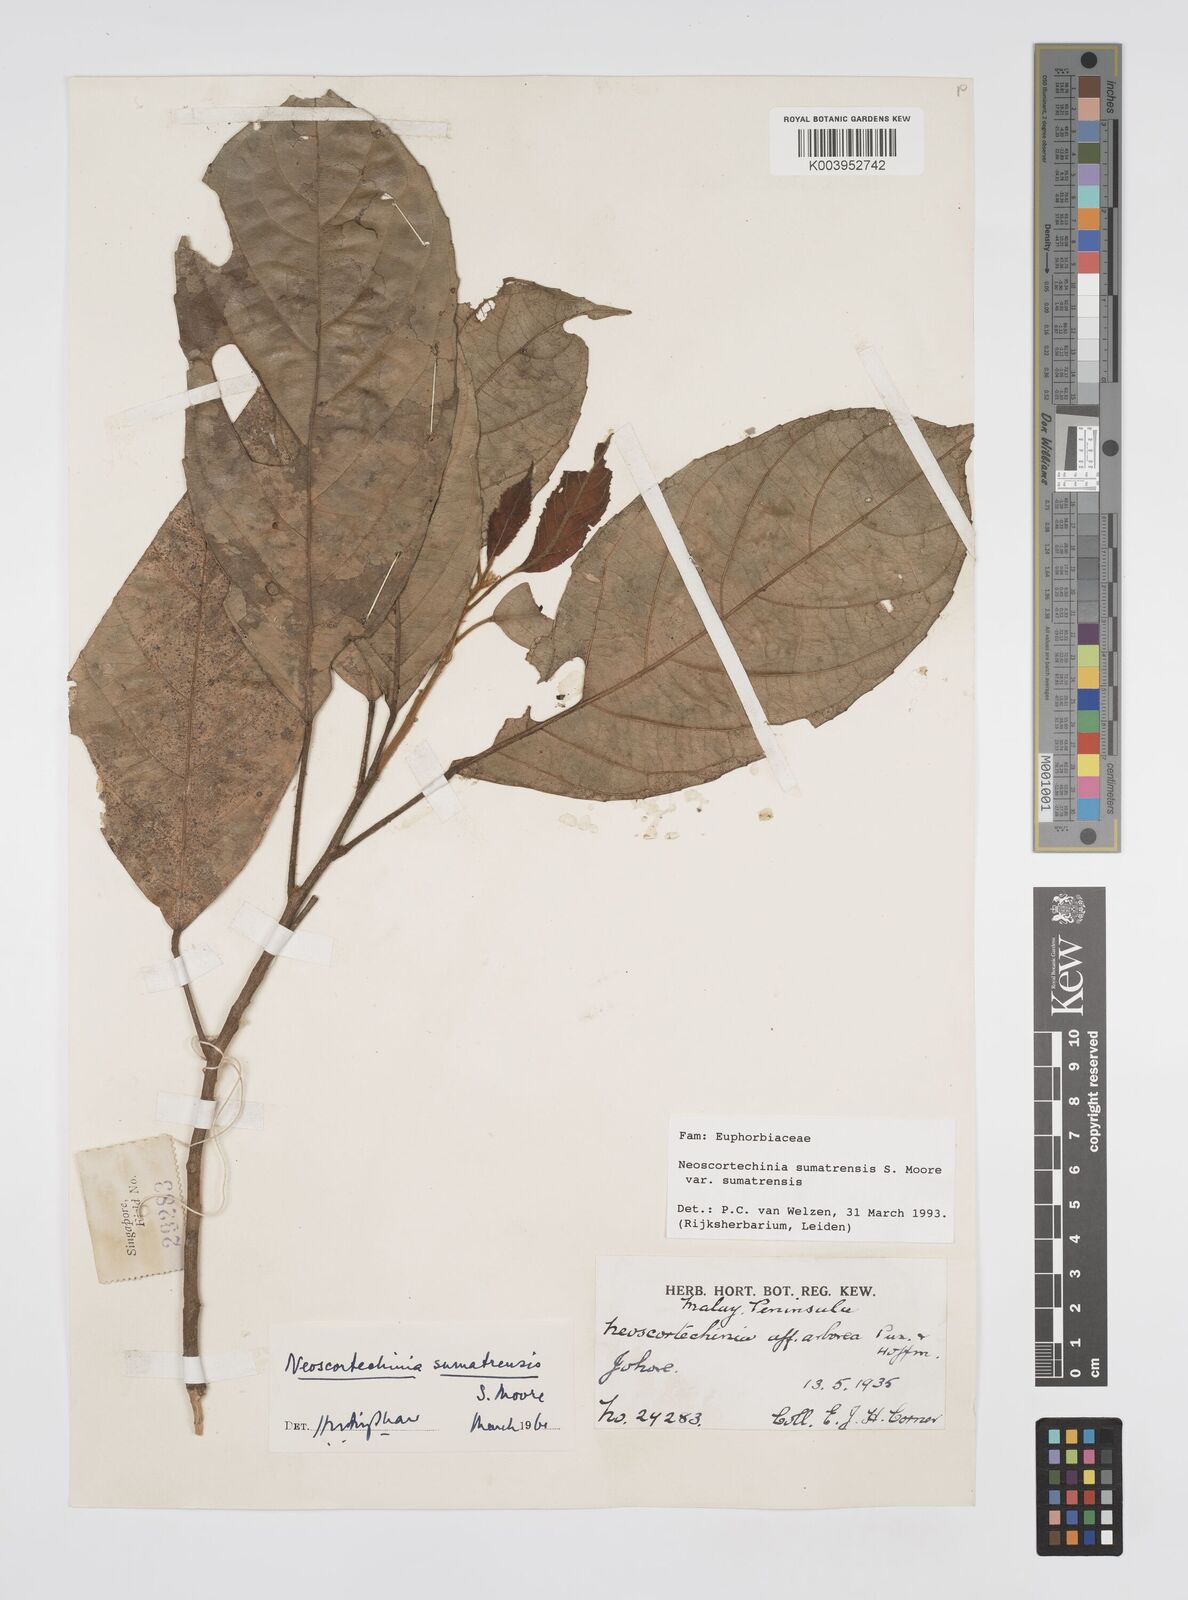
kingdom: Plantae
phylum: Tracheophyta
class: Magnoliopsida
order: Malpighiales
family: Euphorbiaceae
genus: Neoscortechinia
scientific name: Neoscortechinia sumatrensis
